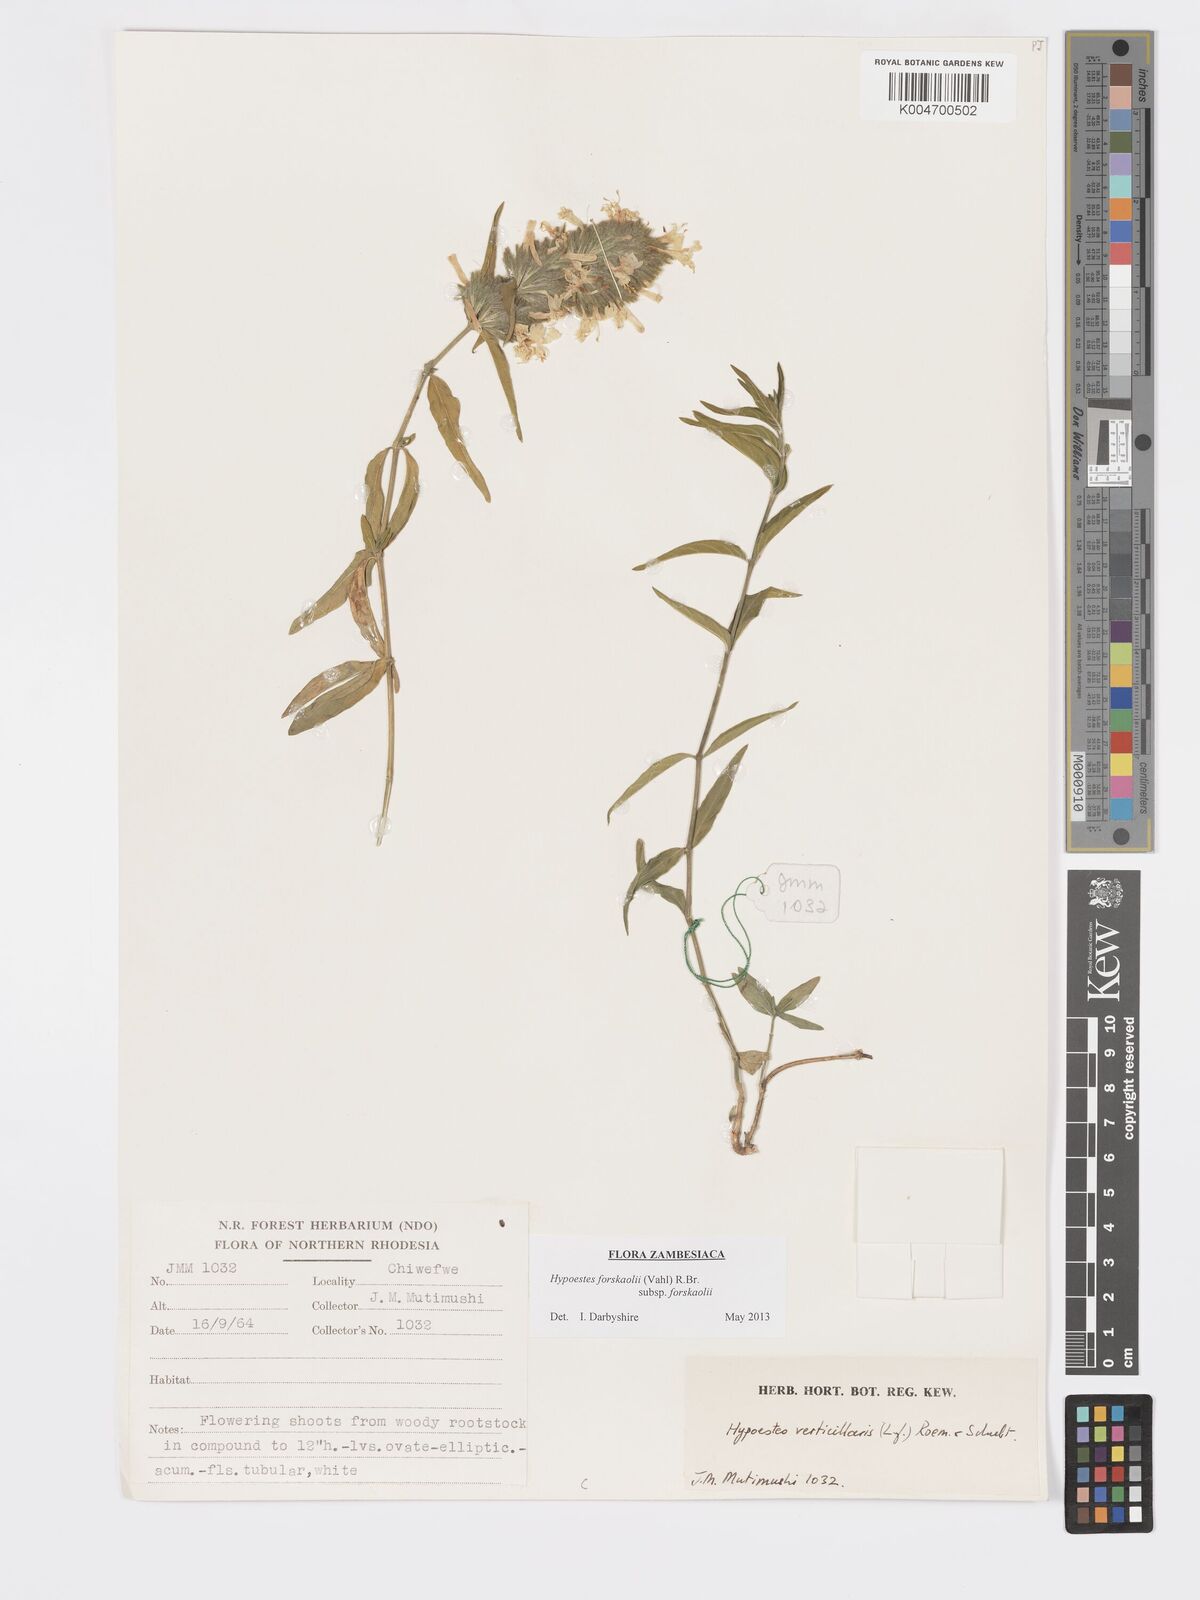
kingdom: Plantae
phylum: Tracheophyta
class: Magnoliopsida
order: Lamiales
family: Acanthaceae
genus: Hypoestes
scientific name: Hypoestes forskaolii
